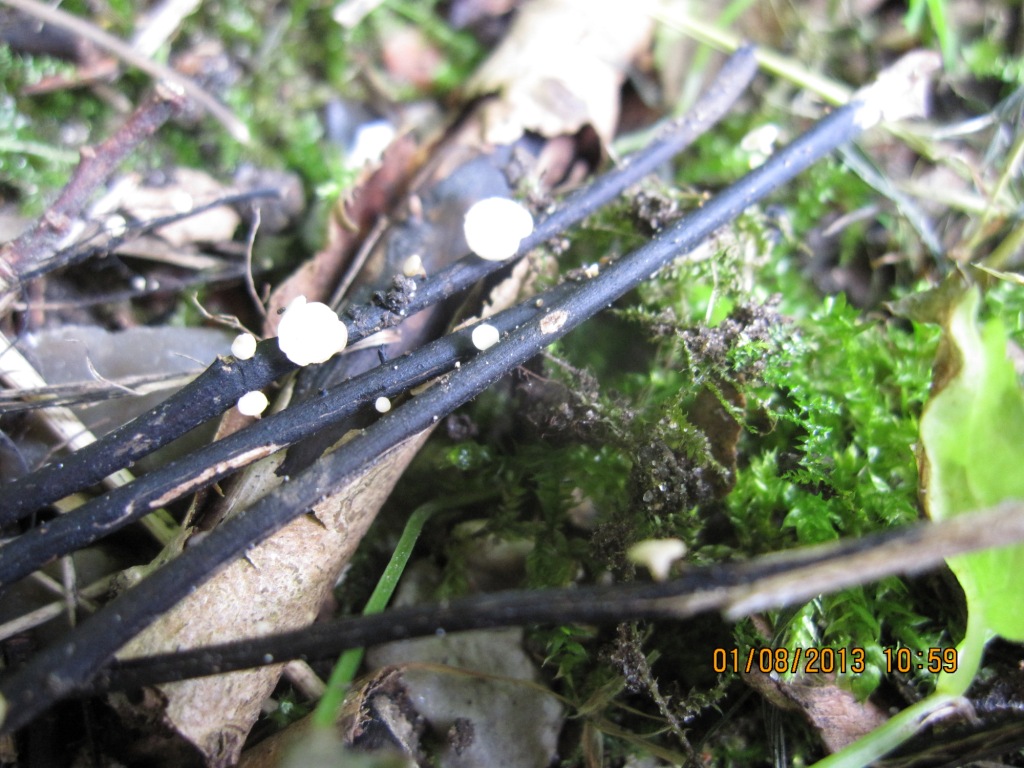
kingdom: Fungi
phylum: Ascomycota
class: Leotiomycetes
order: Helotiales
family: Helotiaceae
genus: Hymenoscyphus
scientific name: Hymenoscyphus fraxineus
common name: asketoptørre-stilkskive
